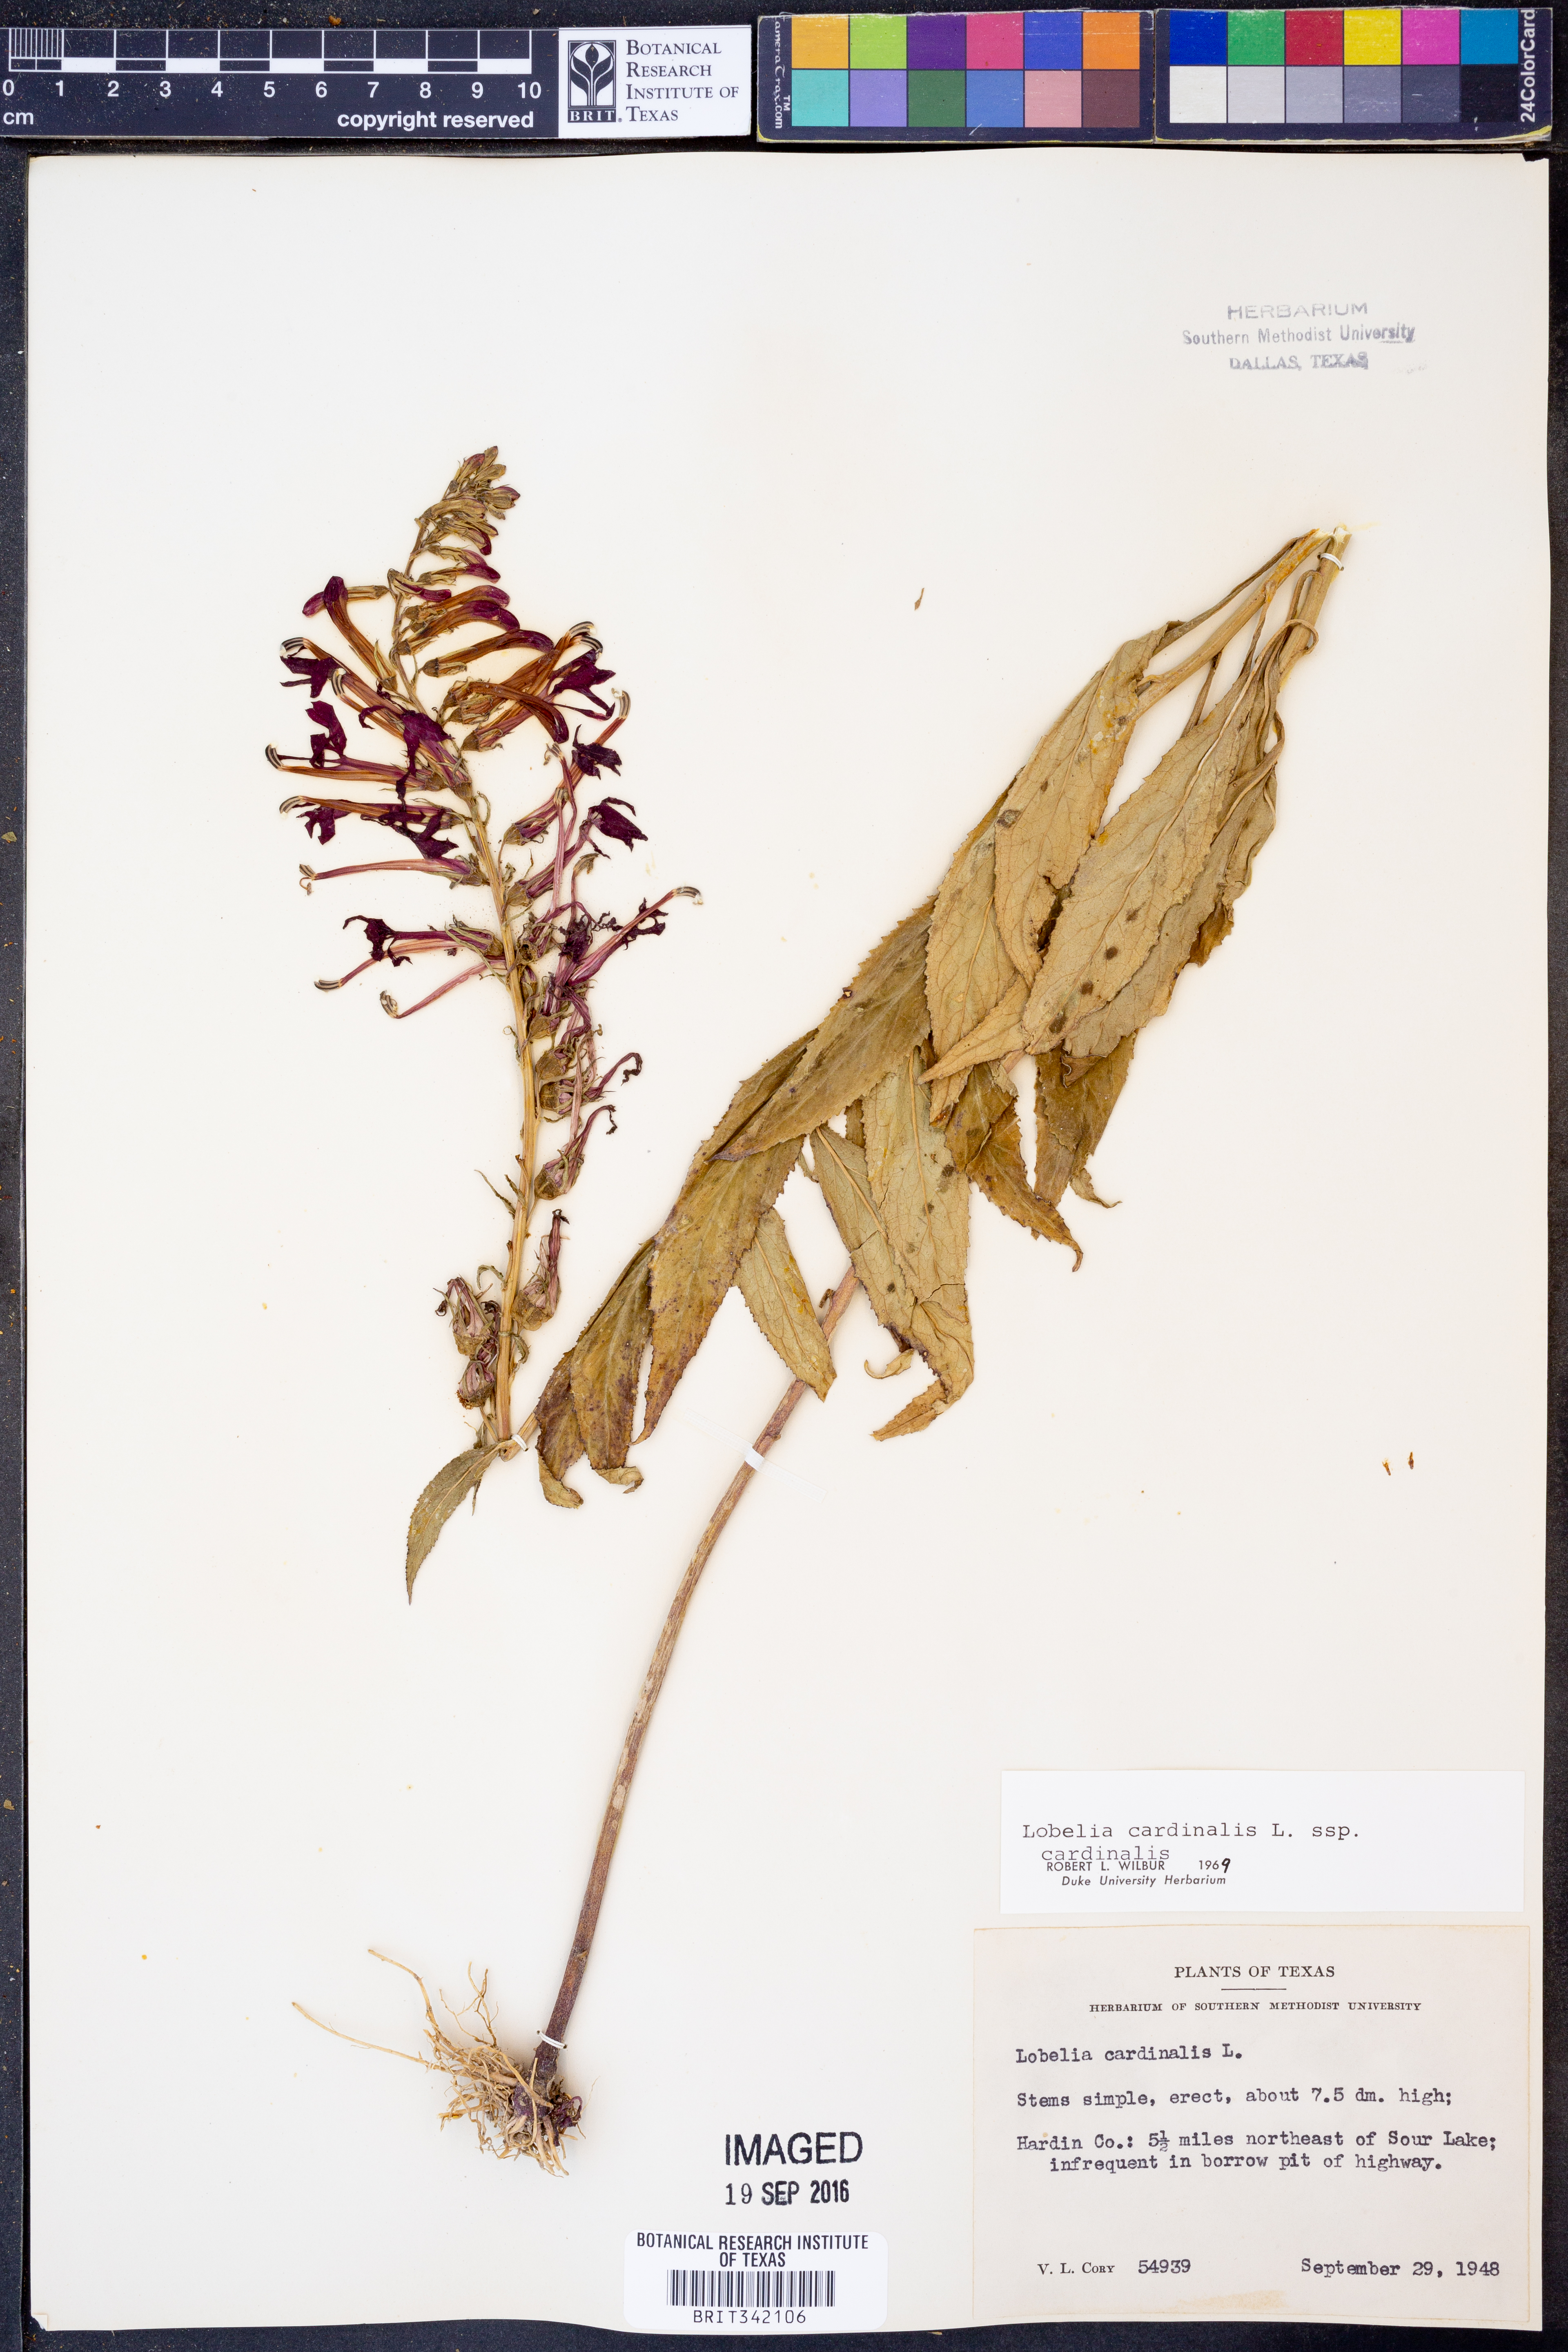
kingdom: Plantae
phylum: Tracheophyta
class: Magnoliopsida
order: Asterales
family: Campanulaceae
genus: Lobelia
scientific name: Lobelia cardinalis
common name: Cardinal flower
